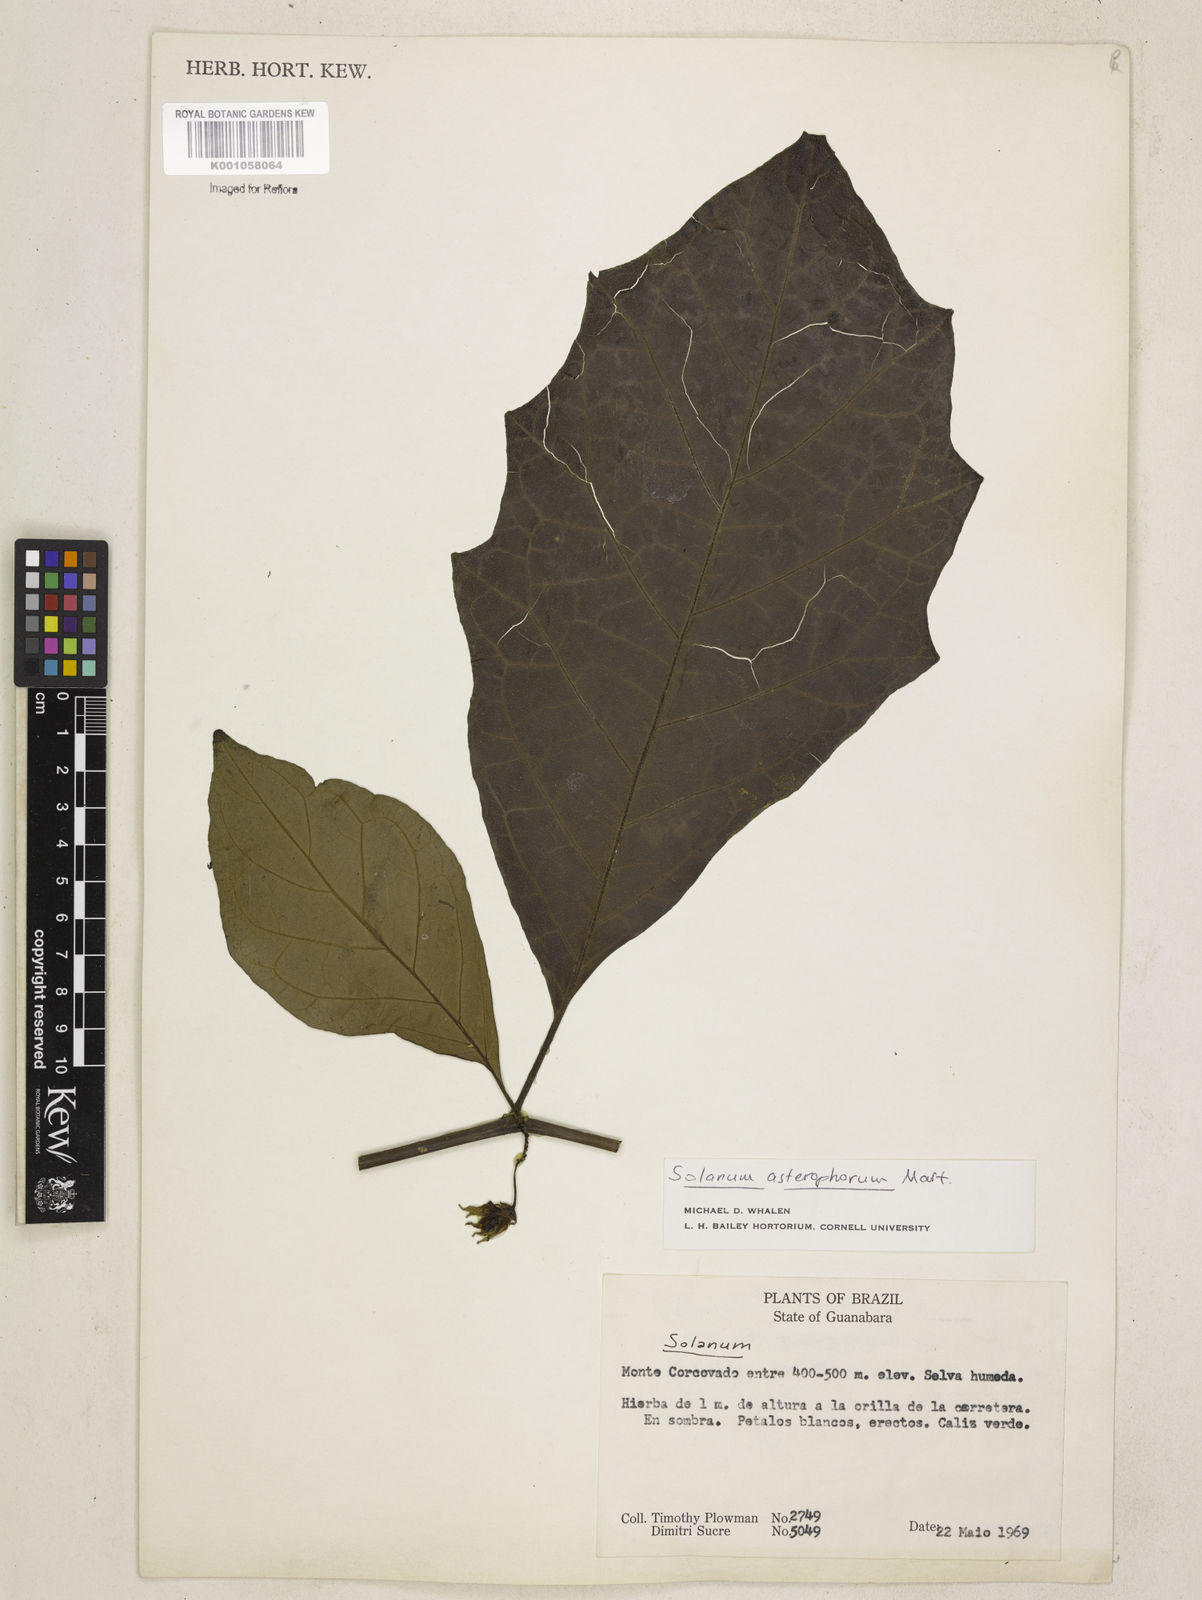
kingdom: Plantae
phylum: Tracheophyta
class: Magnoliopsida
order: Solanales
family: Solanaceae
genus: Solanum
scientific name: Solanum asterophorum
